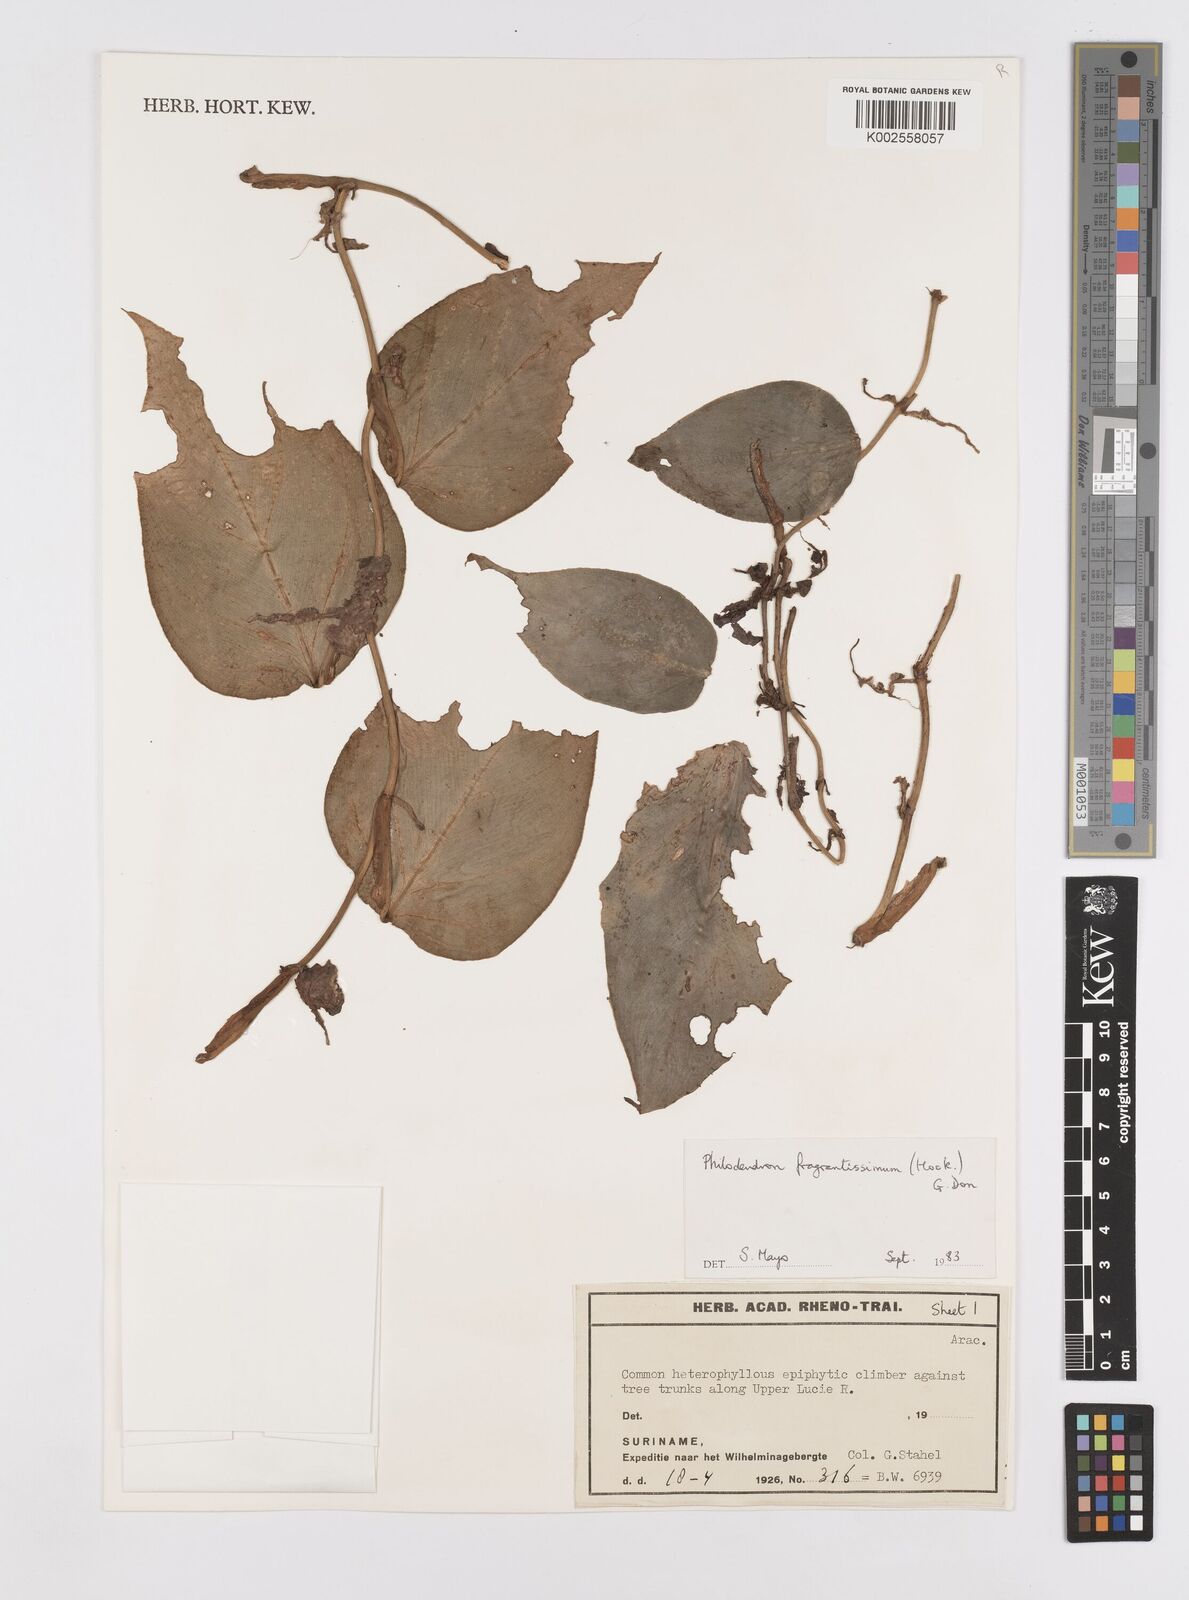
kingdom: Plantae
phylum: Tracheophyta
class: Liliopsida
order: Alismatales
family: Araceae
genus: Philodendron
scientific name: Philodendron fragrantissimum
